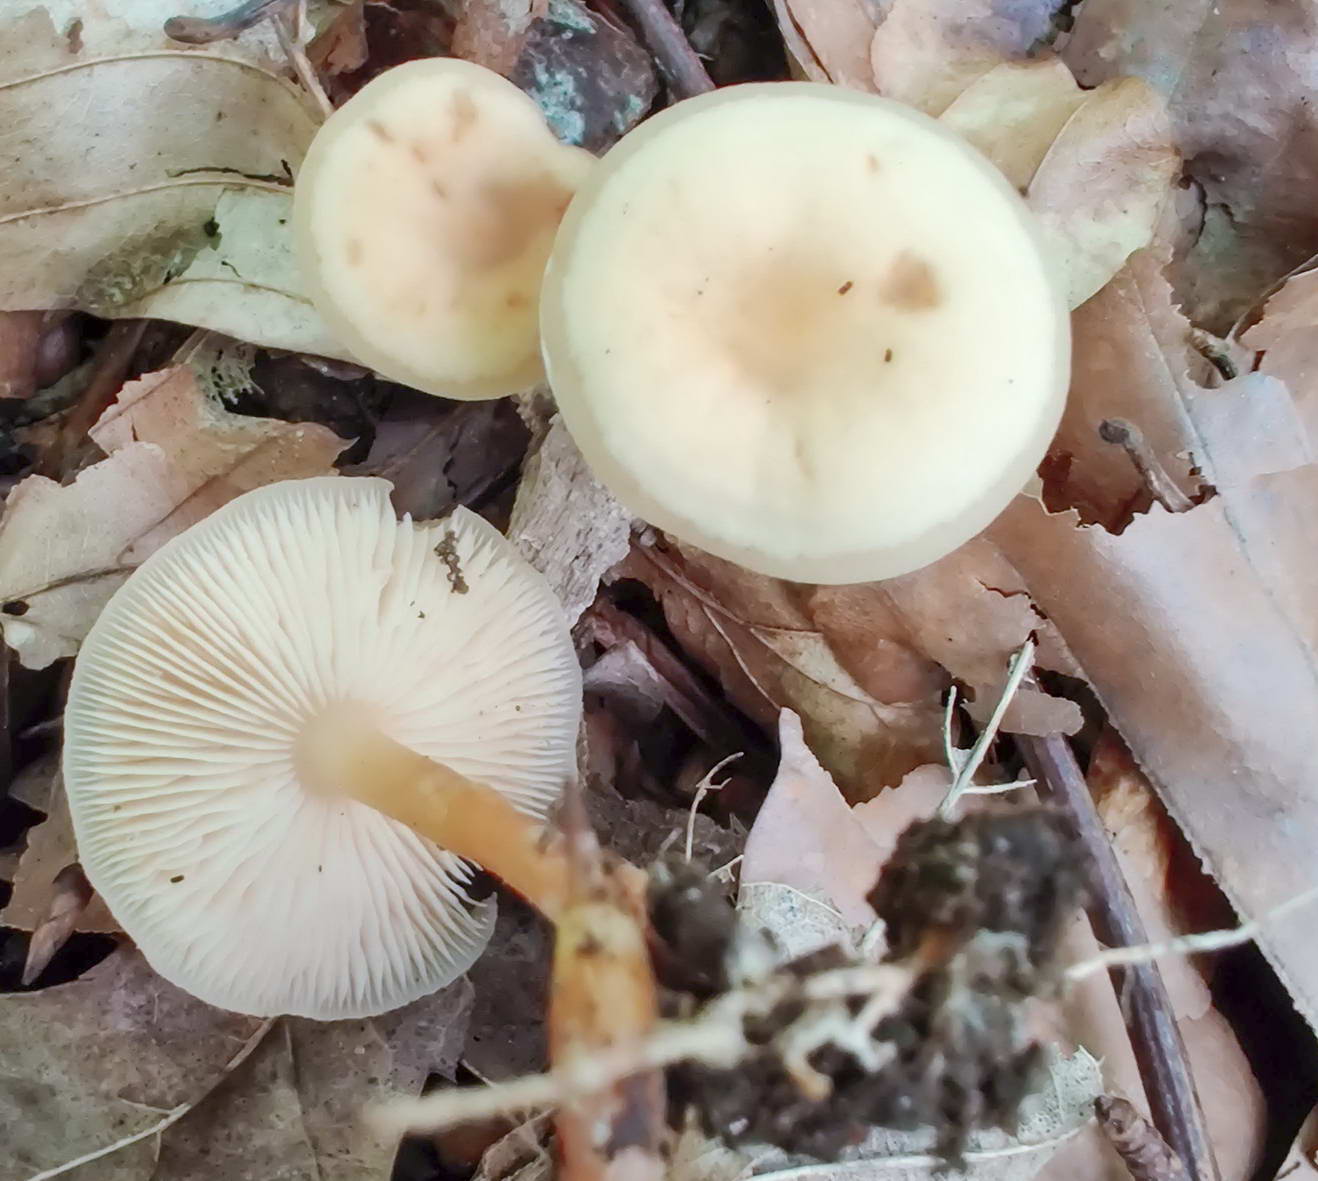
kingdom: Fungi
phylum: Basidiomycota
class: Agaricomycetes
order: Agaricales
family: Omphalotaceae
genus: Gymnopus
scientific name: Gymnopus aquosus
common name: bleg fladhat
